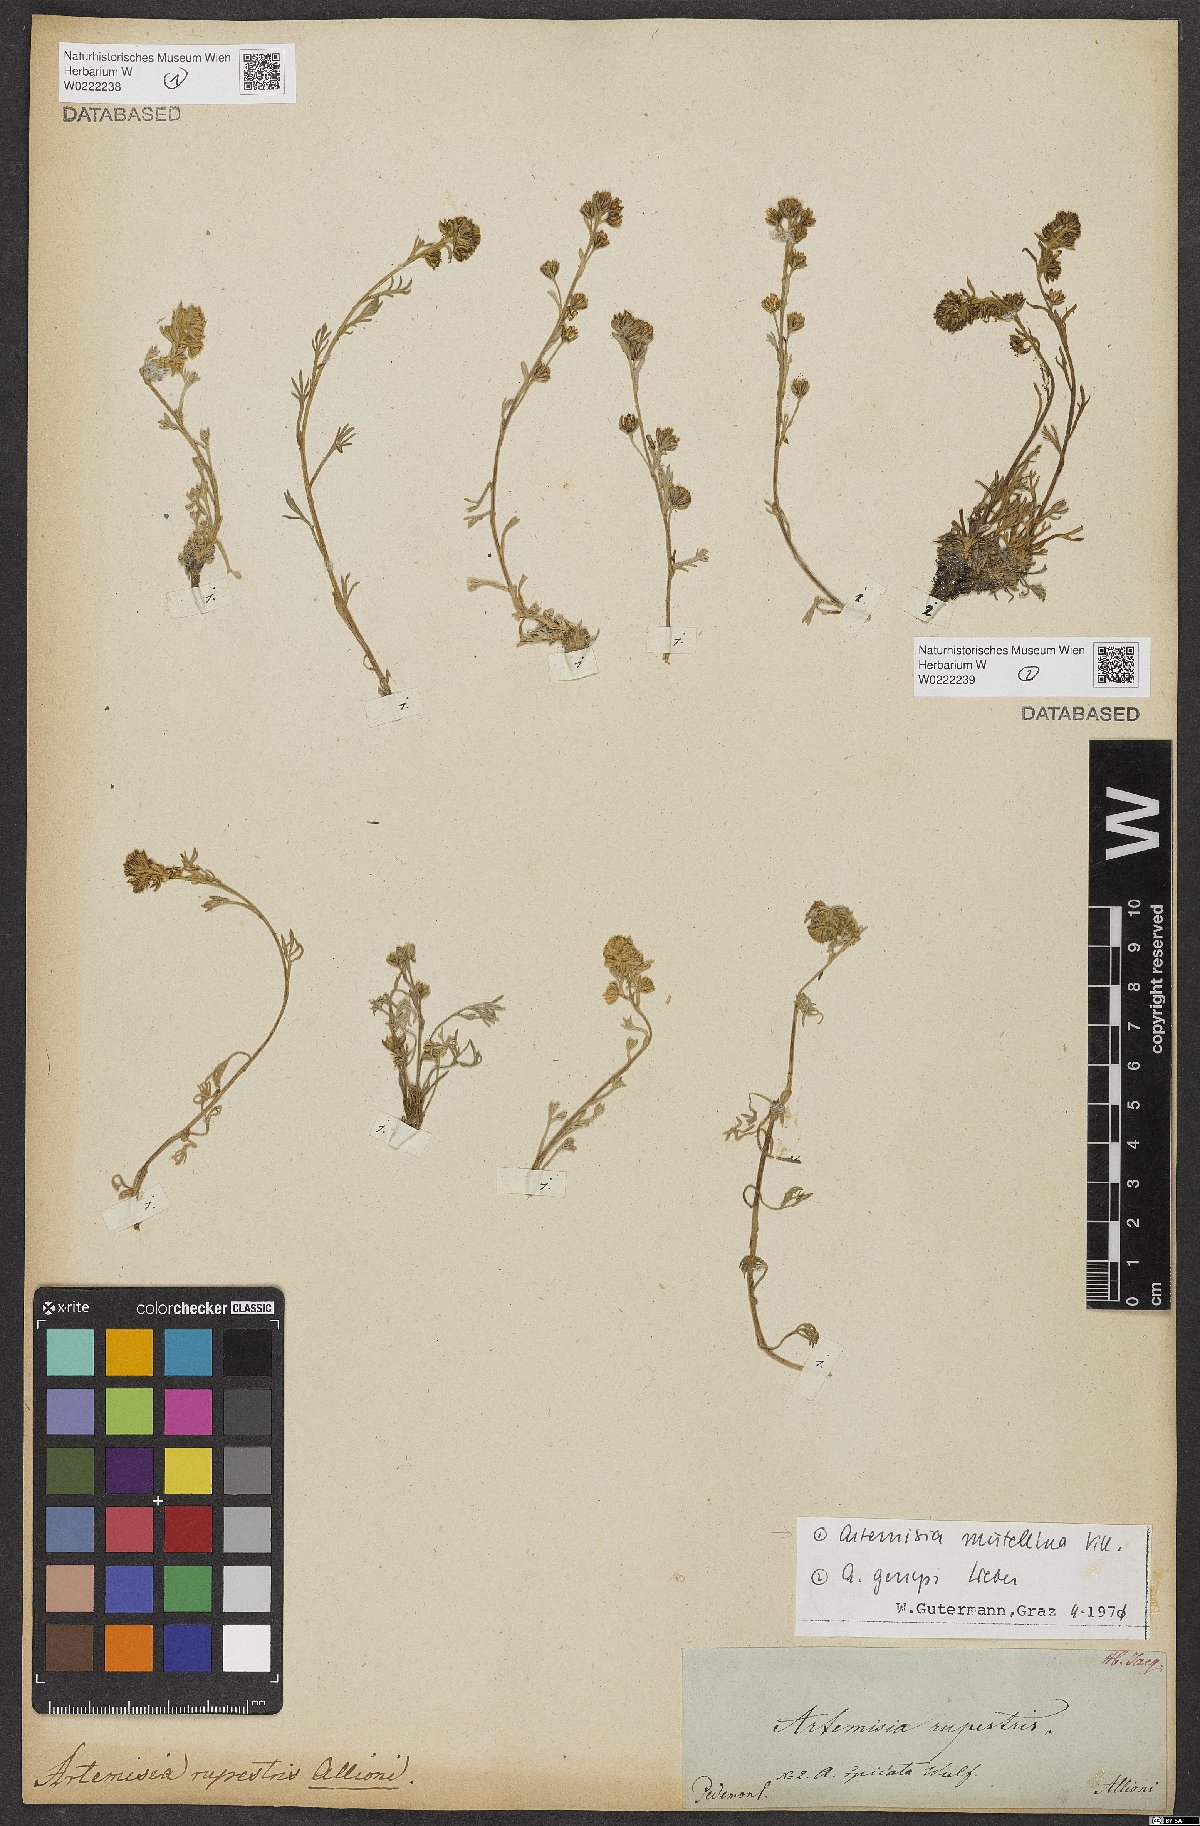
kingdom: Plantae
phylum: Tracheophyta
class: Magnoliopsida
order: Asterales
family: Asteraceae
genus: Artemisia
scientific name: Artemisia genipi
